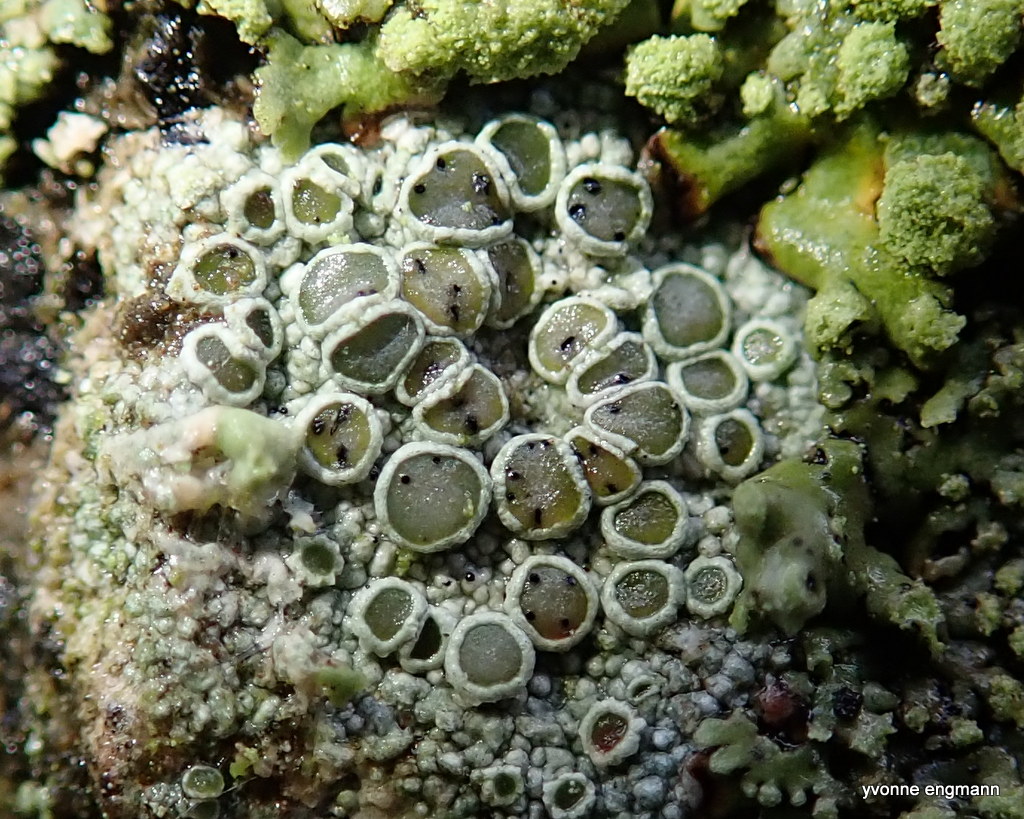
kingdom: Fungi
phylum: Ascomycota
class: Dothideomycetes
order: Pleosporales
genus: Vouauxiella
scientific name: Vouauxiella lichenicola
